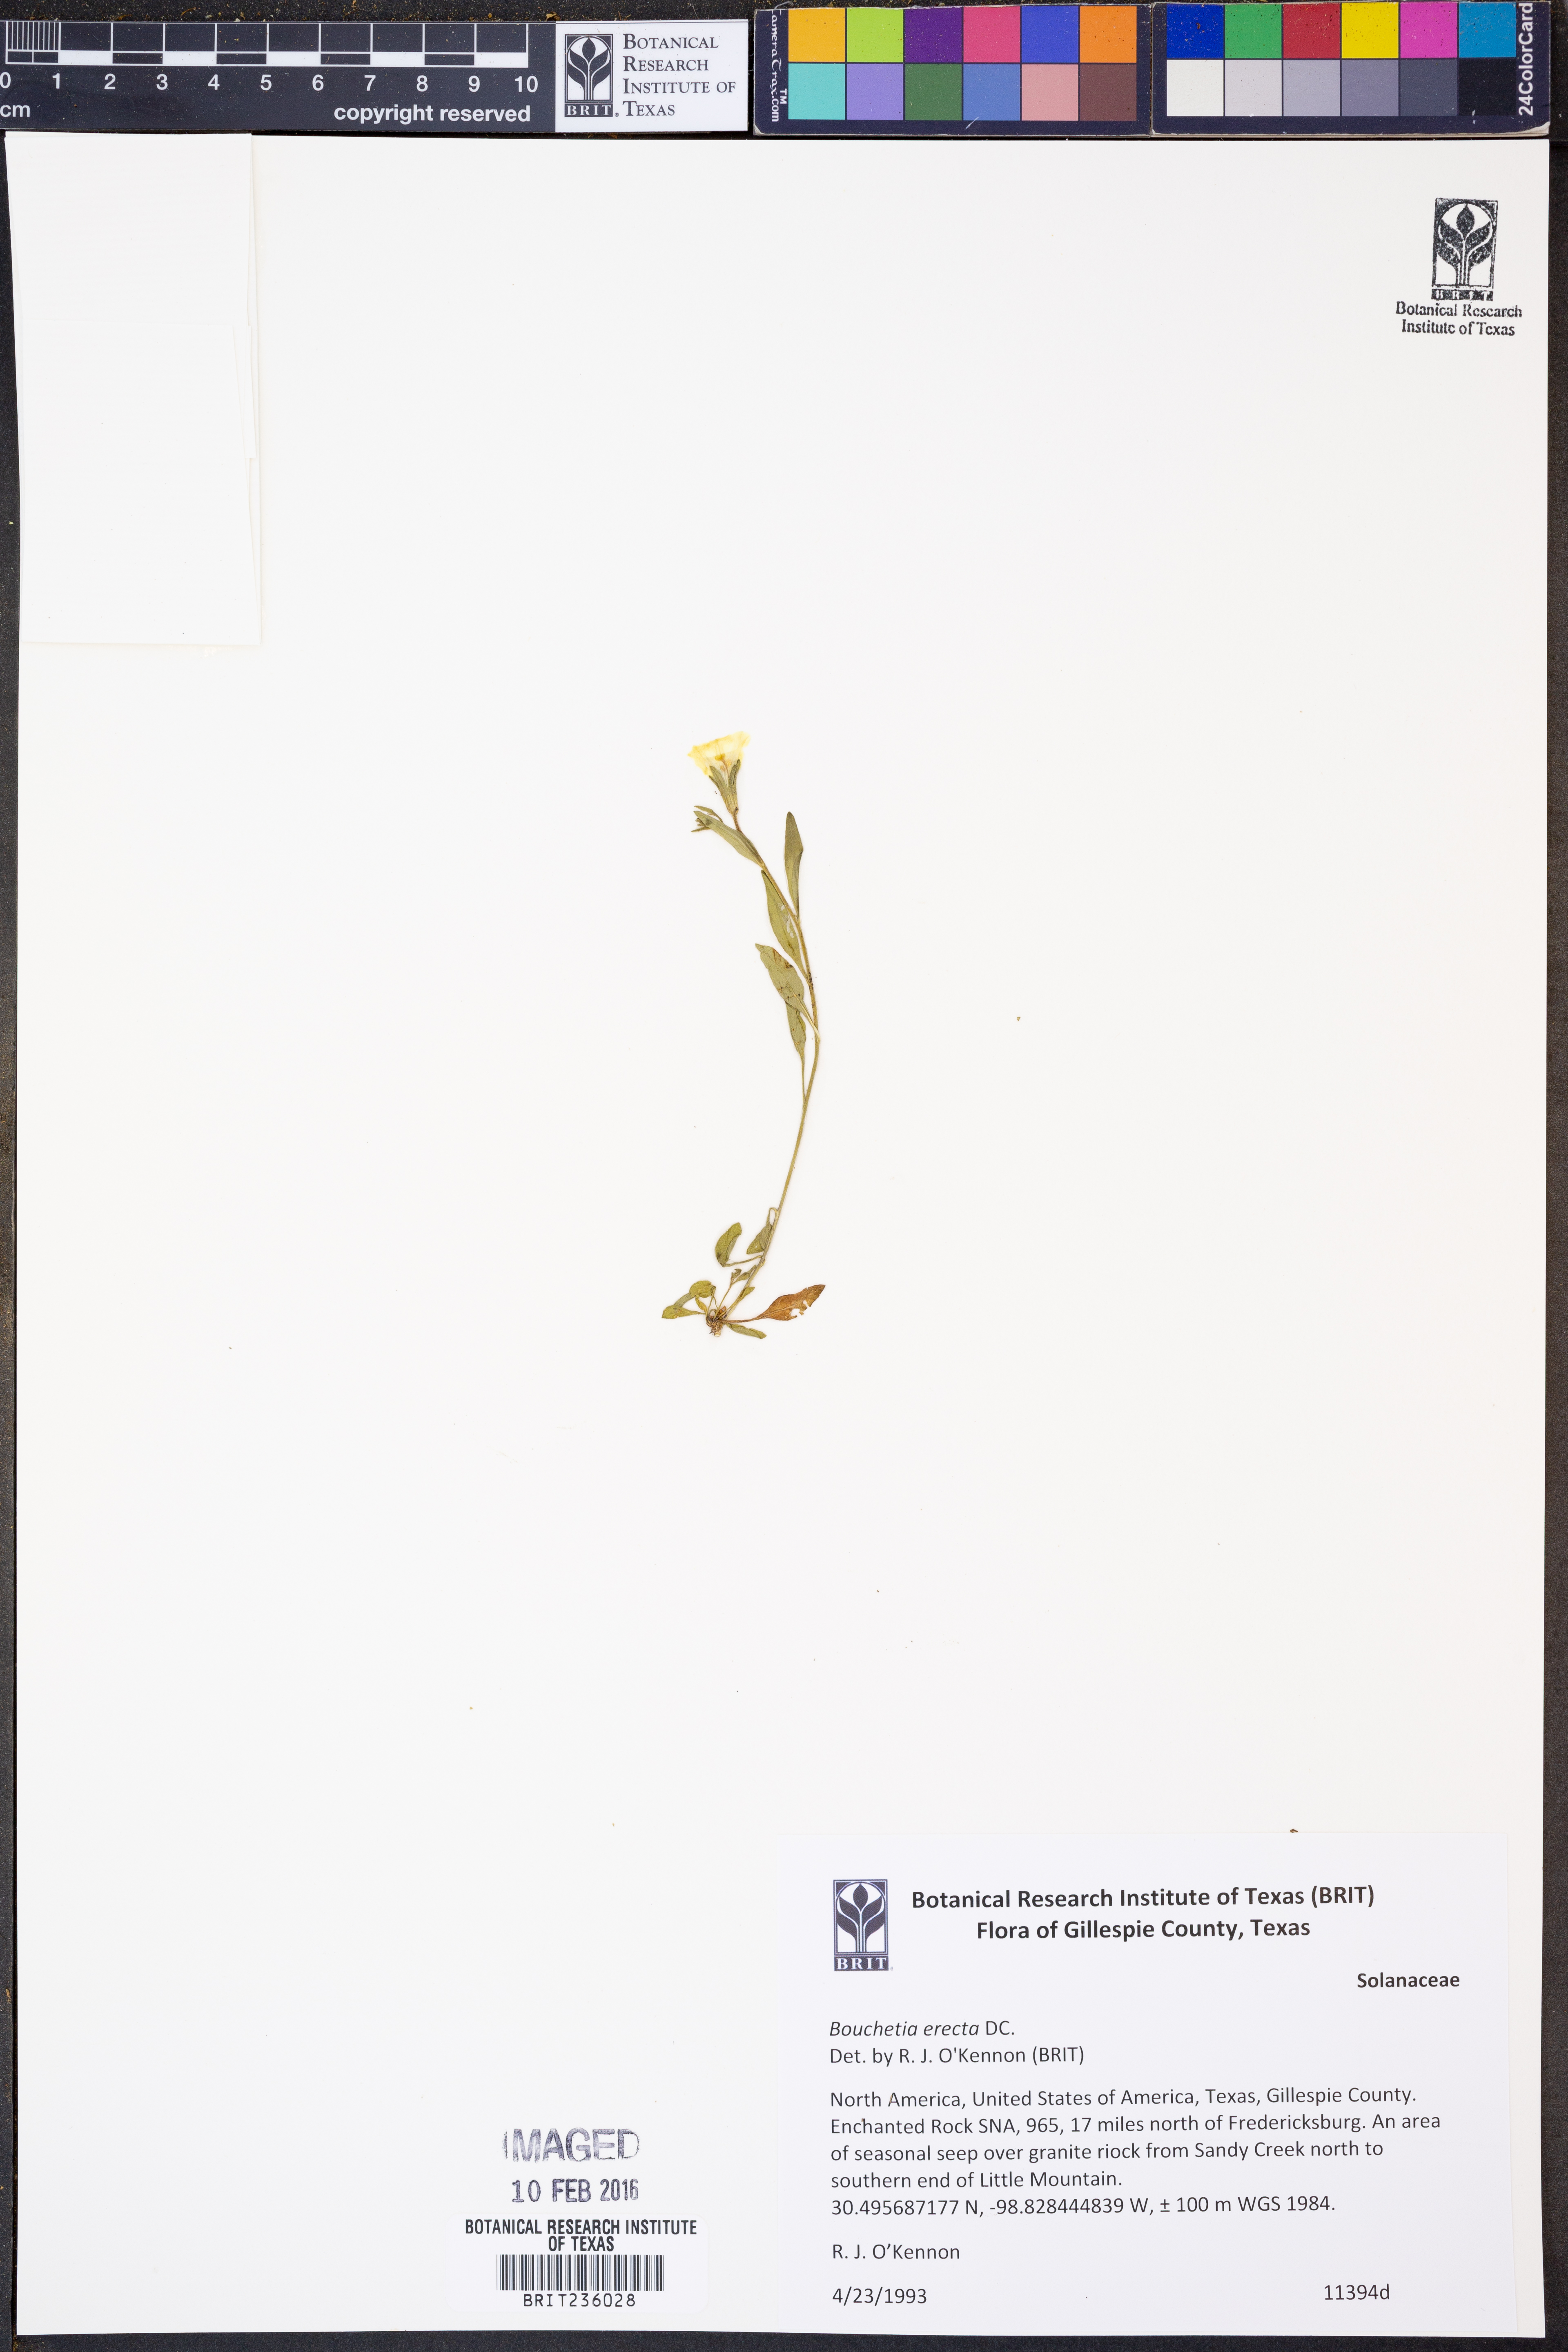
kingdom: Plantae
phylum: Tracheophyta
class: Magnoliopsida
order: Solanales
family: Solanaceae
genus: Salpiglossis
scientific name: Salpiglossis erecta
